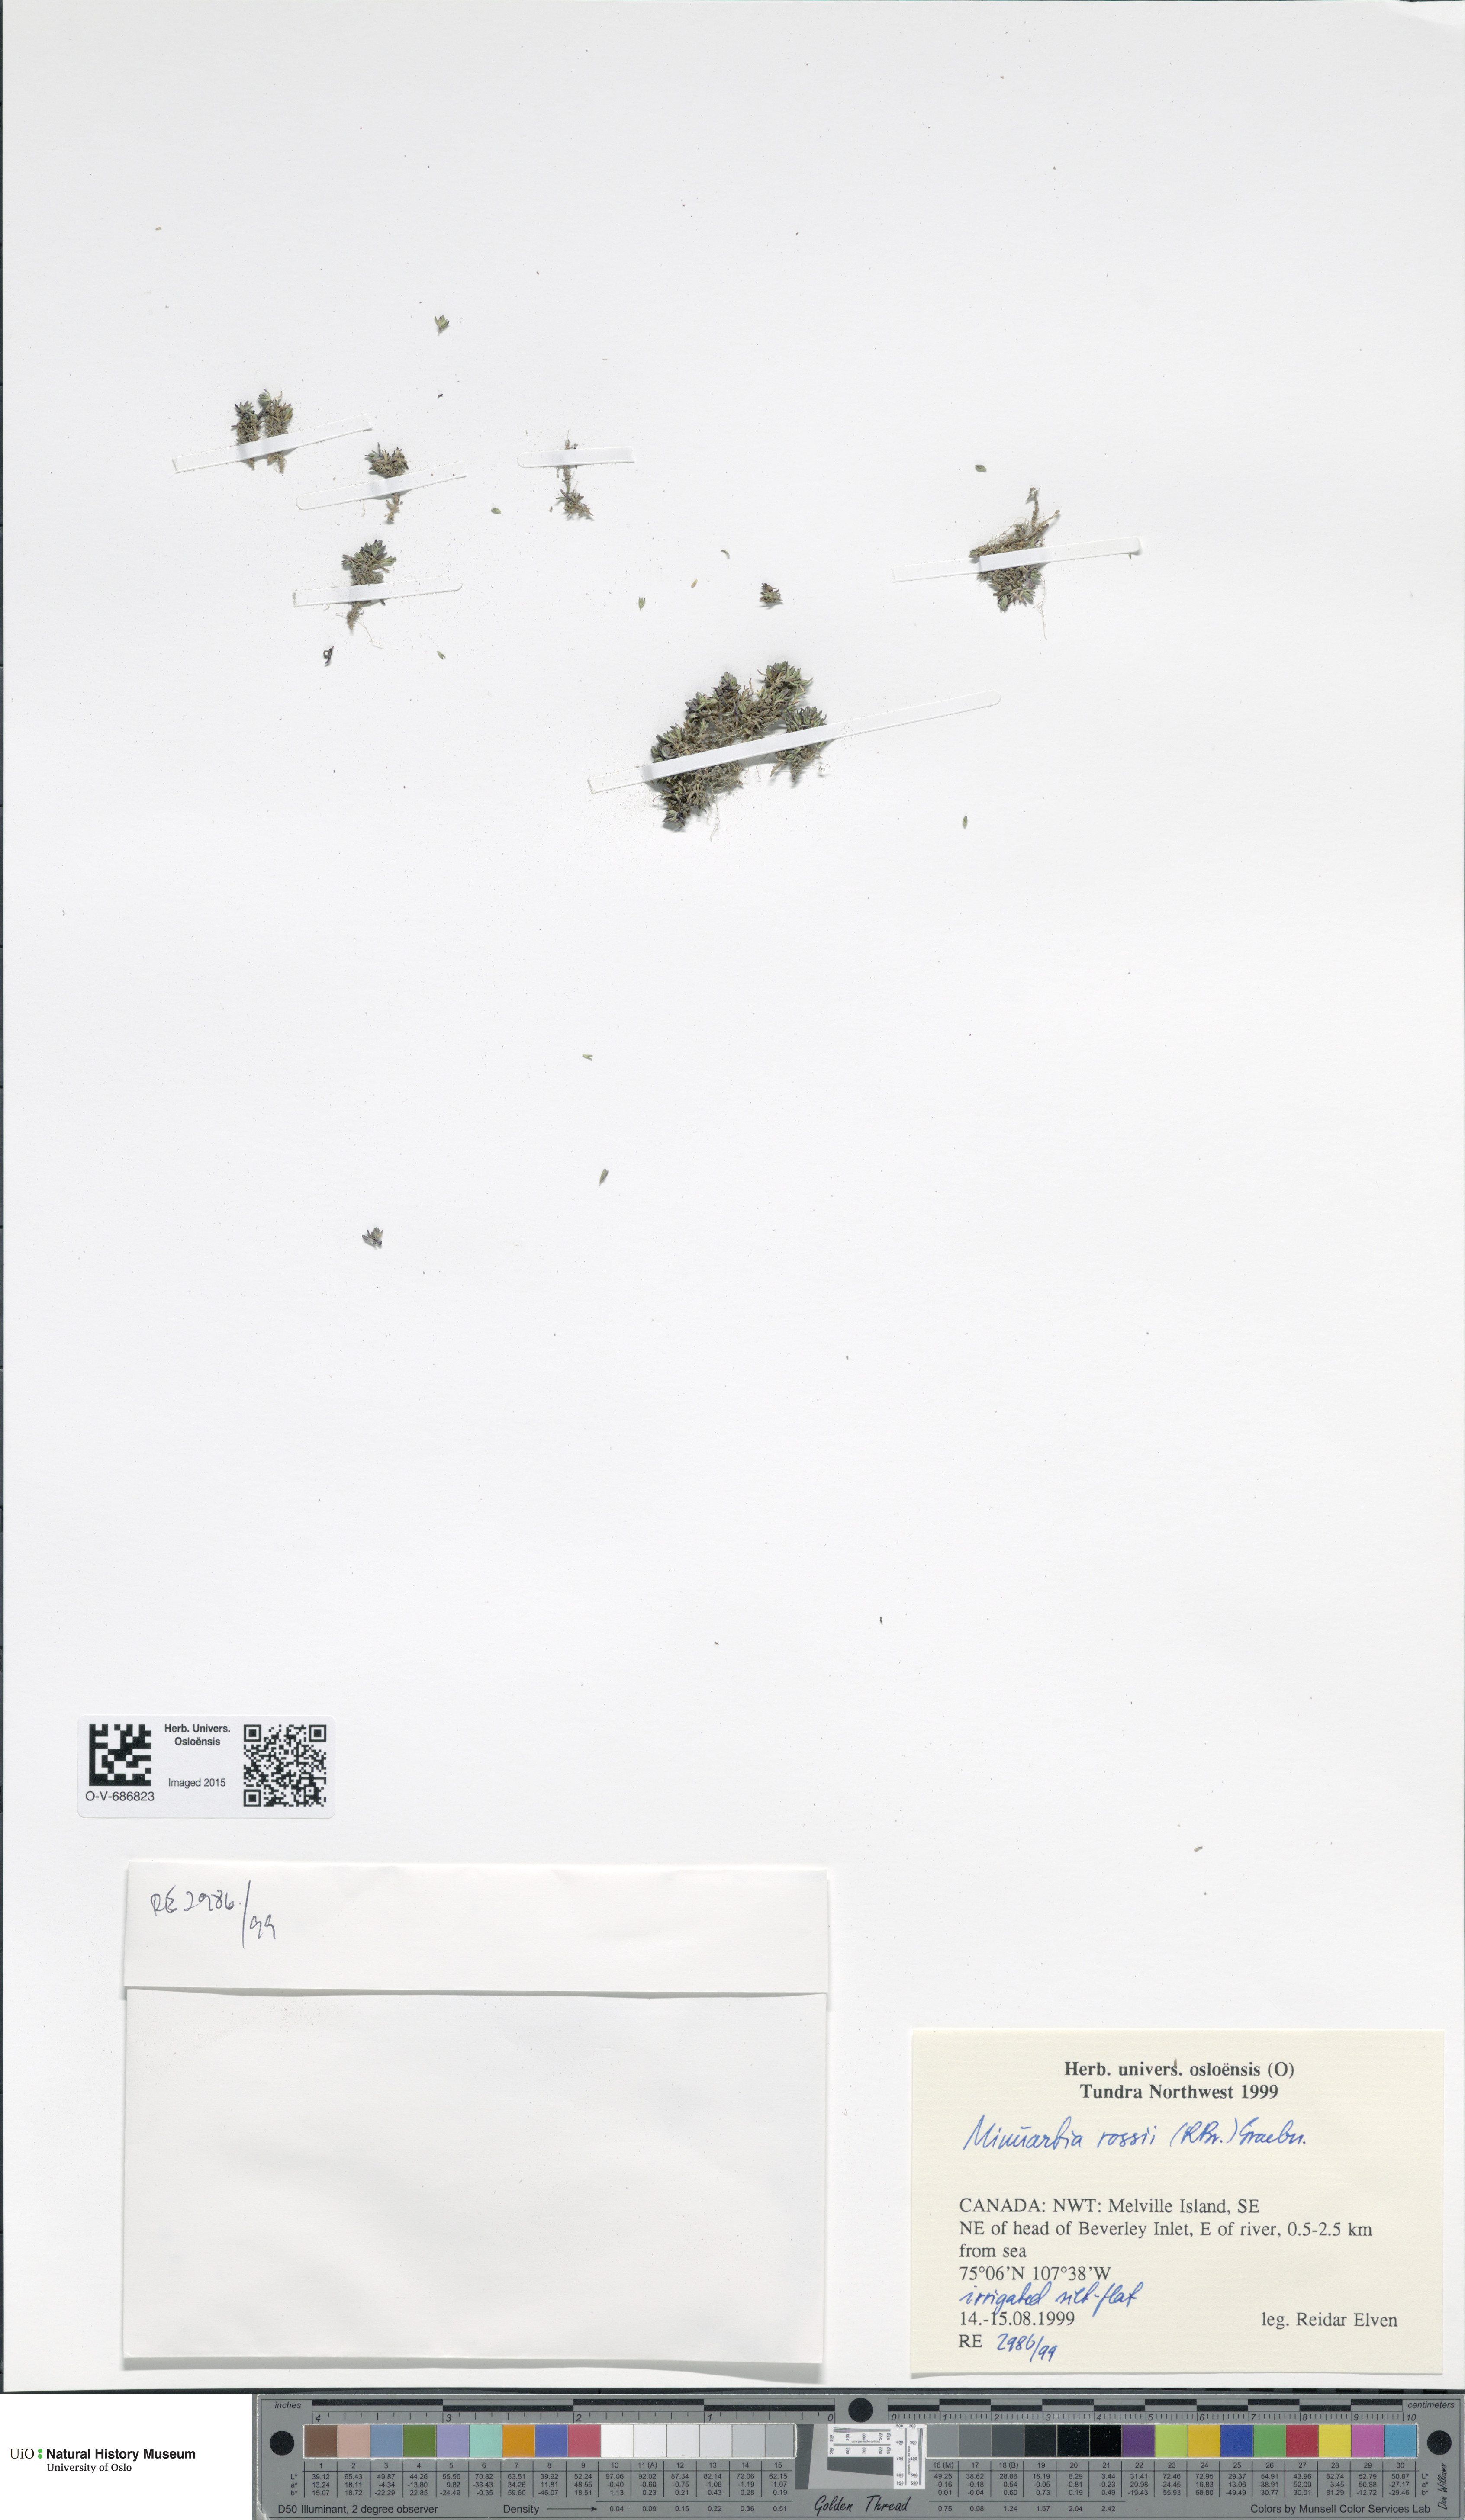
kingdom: Plantae
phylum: Tracheophyta
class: Magnoliopsida
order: Caryophyllales
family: Caryophyllaceae
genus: Sabulina
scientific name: Sabulina rosei
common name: Ross' sandwort
